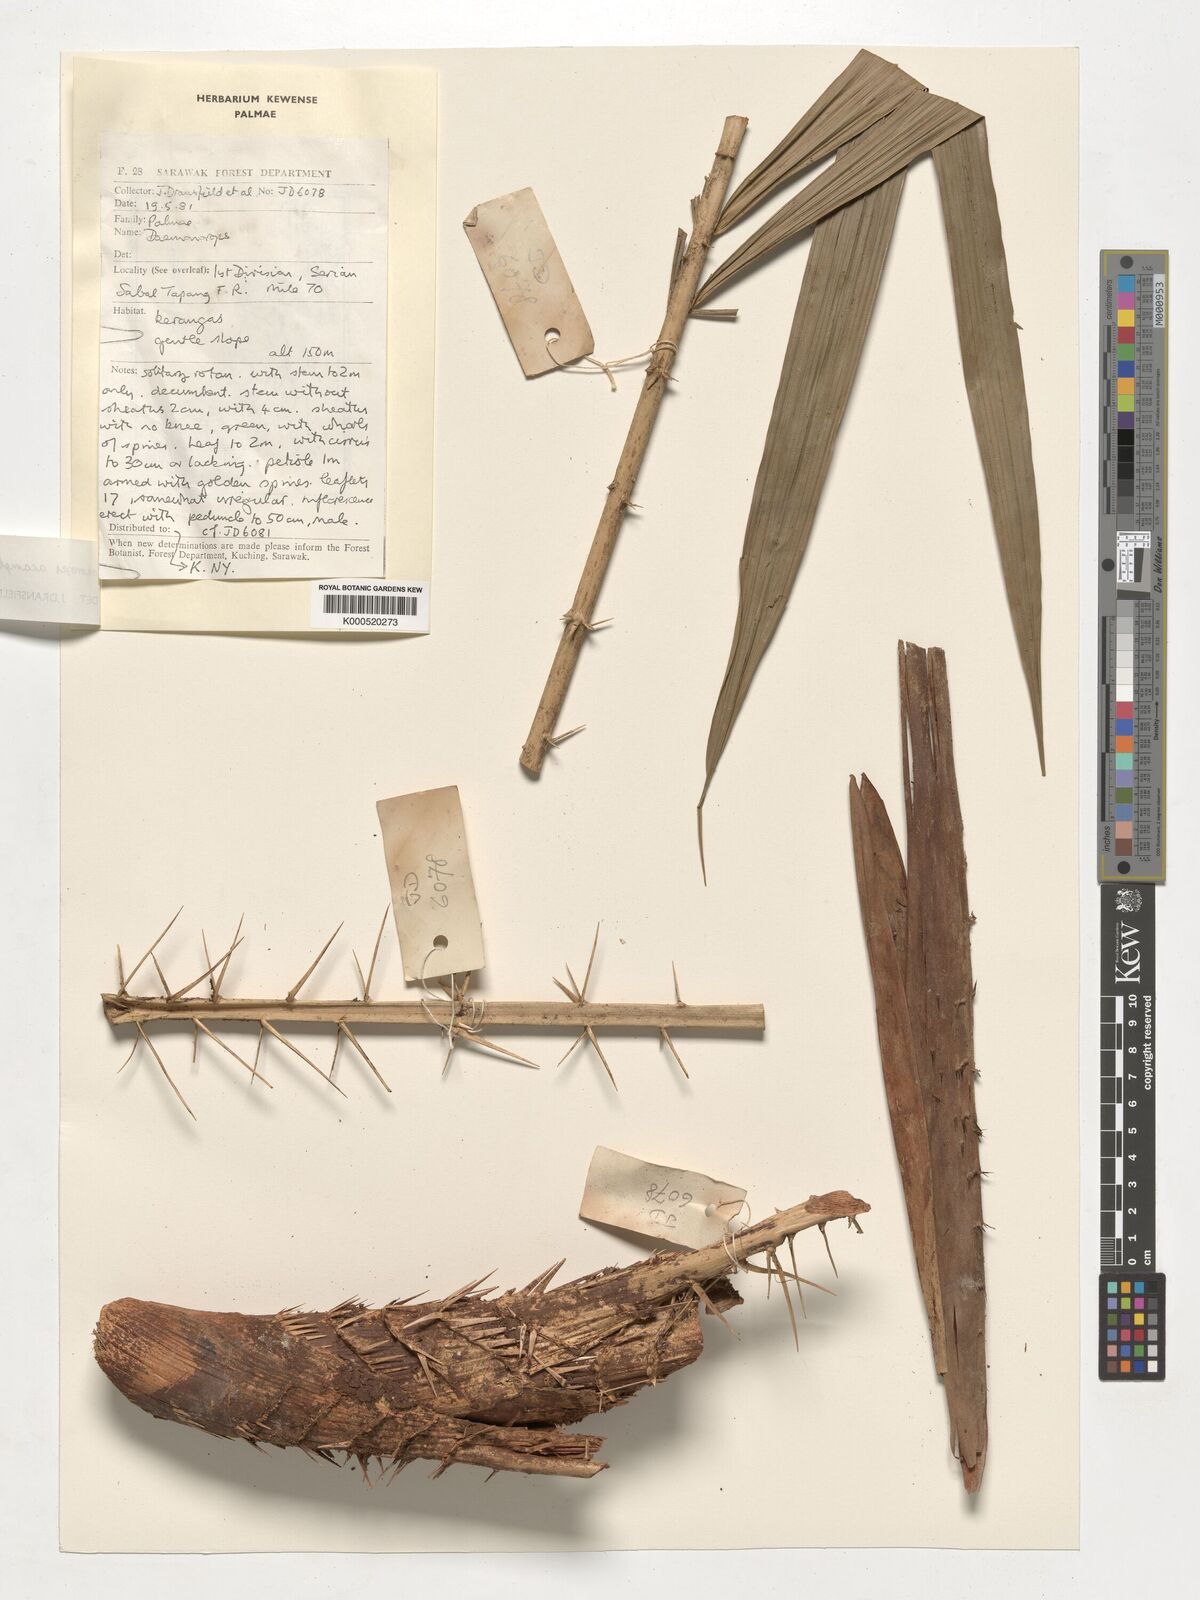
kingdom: Plantae
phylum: Tracheophyta
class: Liliopsida
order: Arecales
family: Arecaceae
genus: Calamus
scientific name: Calamus acamptostachys
